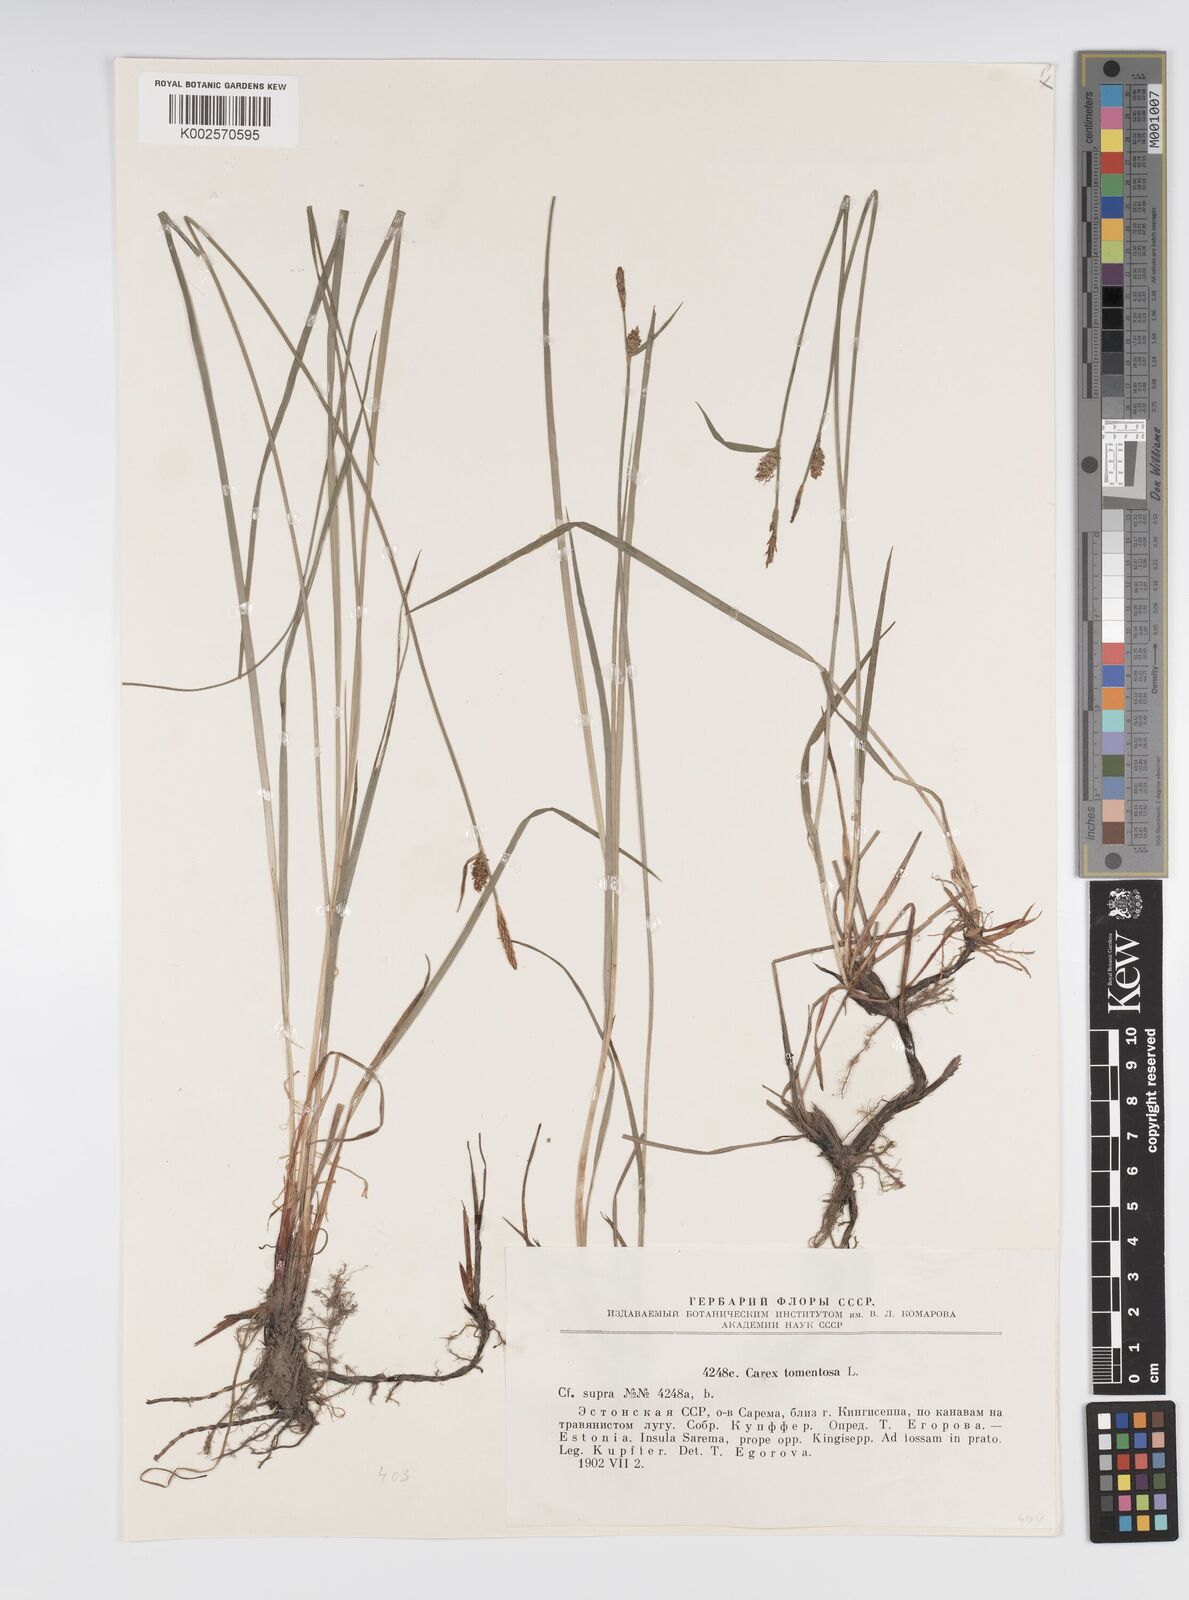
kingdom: Plantae
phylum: Tracheophyta
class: Liliopsida
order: Poales
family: Cyperaceae
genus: Carex
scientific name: Carex montana
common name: Soft-leaved sedge
